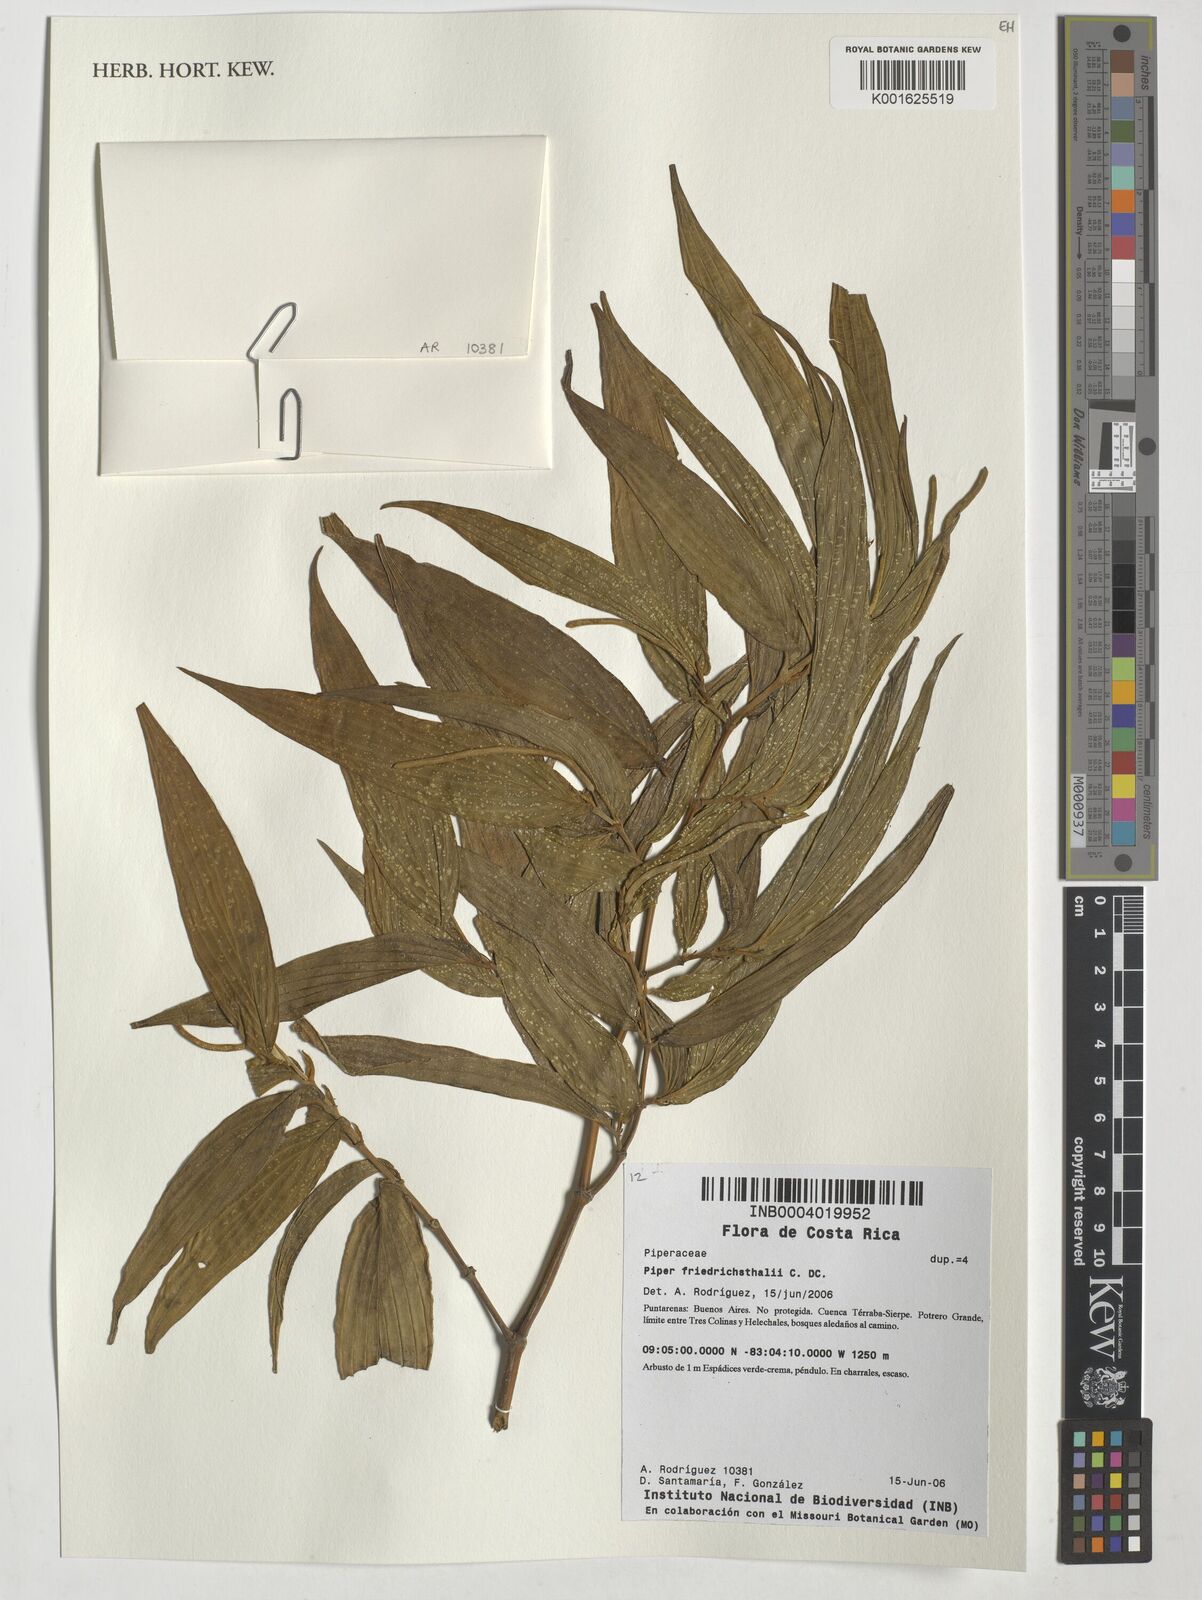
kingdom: Plantae
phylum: Tracheophyta
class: Magnoliopsida
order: Piperales
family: Piperaceae
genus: Piper
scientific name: Piper friedrichsthalii
